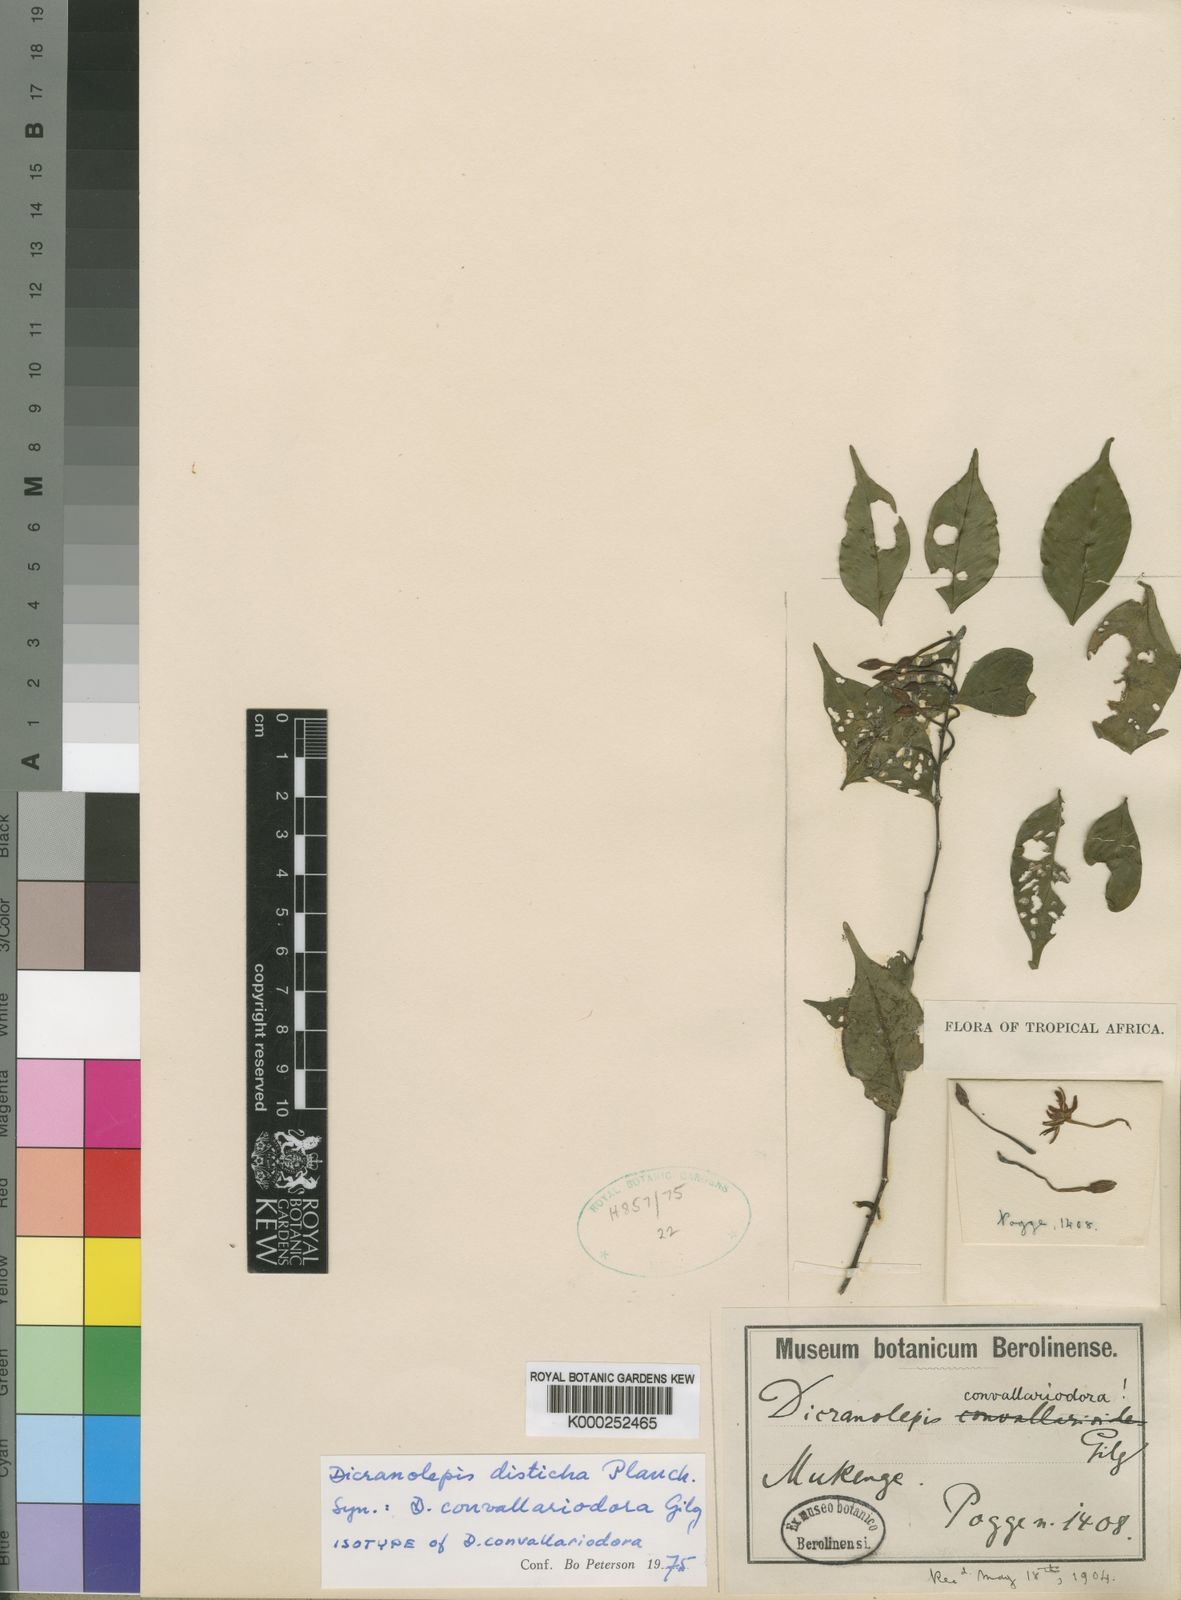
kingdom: Plantae
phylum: Tracheophyta
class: Magnoliopsida
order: Malvales
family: Thymelaeaceae
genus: Dicranolepis
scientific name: Dicranolepis disticha
